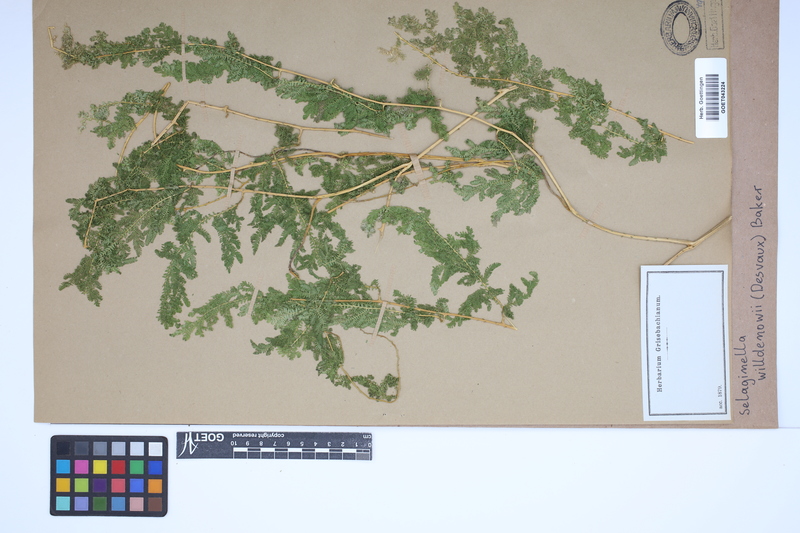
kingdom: Plantae
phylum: Tracheophyta
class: Lycopodiopsida
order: Selaginellales
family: Selaginellaceae
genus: Selaginella
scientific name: Selaginella willdenowii
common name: Willdenow's spikemoss
